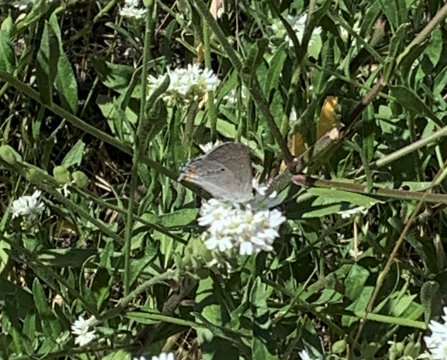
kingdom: Animalia
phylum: Arthropoda
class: Insecta
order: Lepidoptera
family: Lycaenidae
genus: Strymon
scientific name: Strymon melinus
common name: Gray Hairstreak
